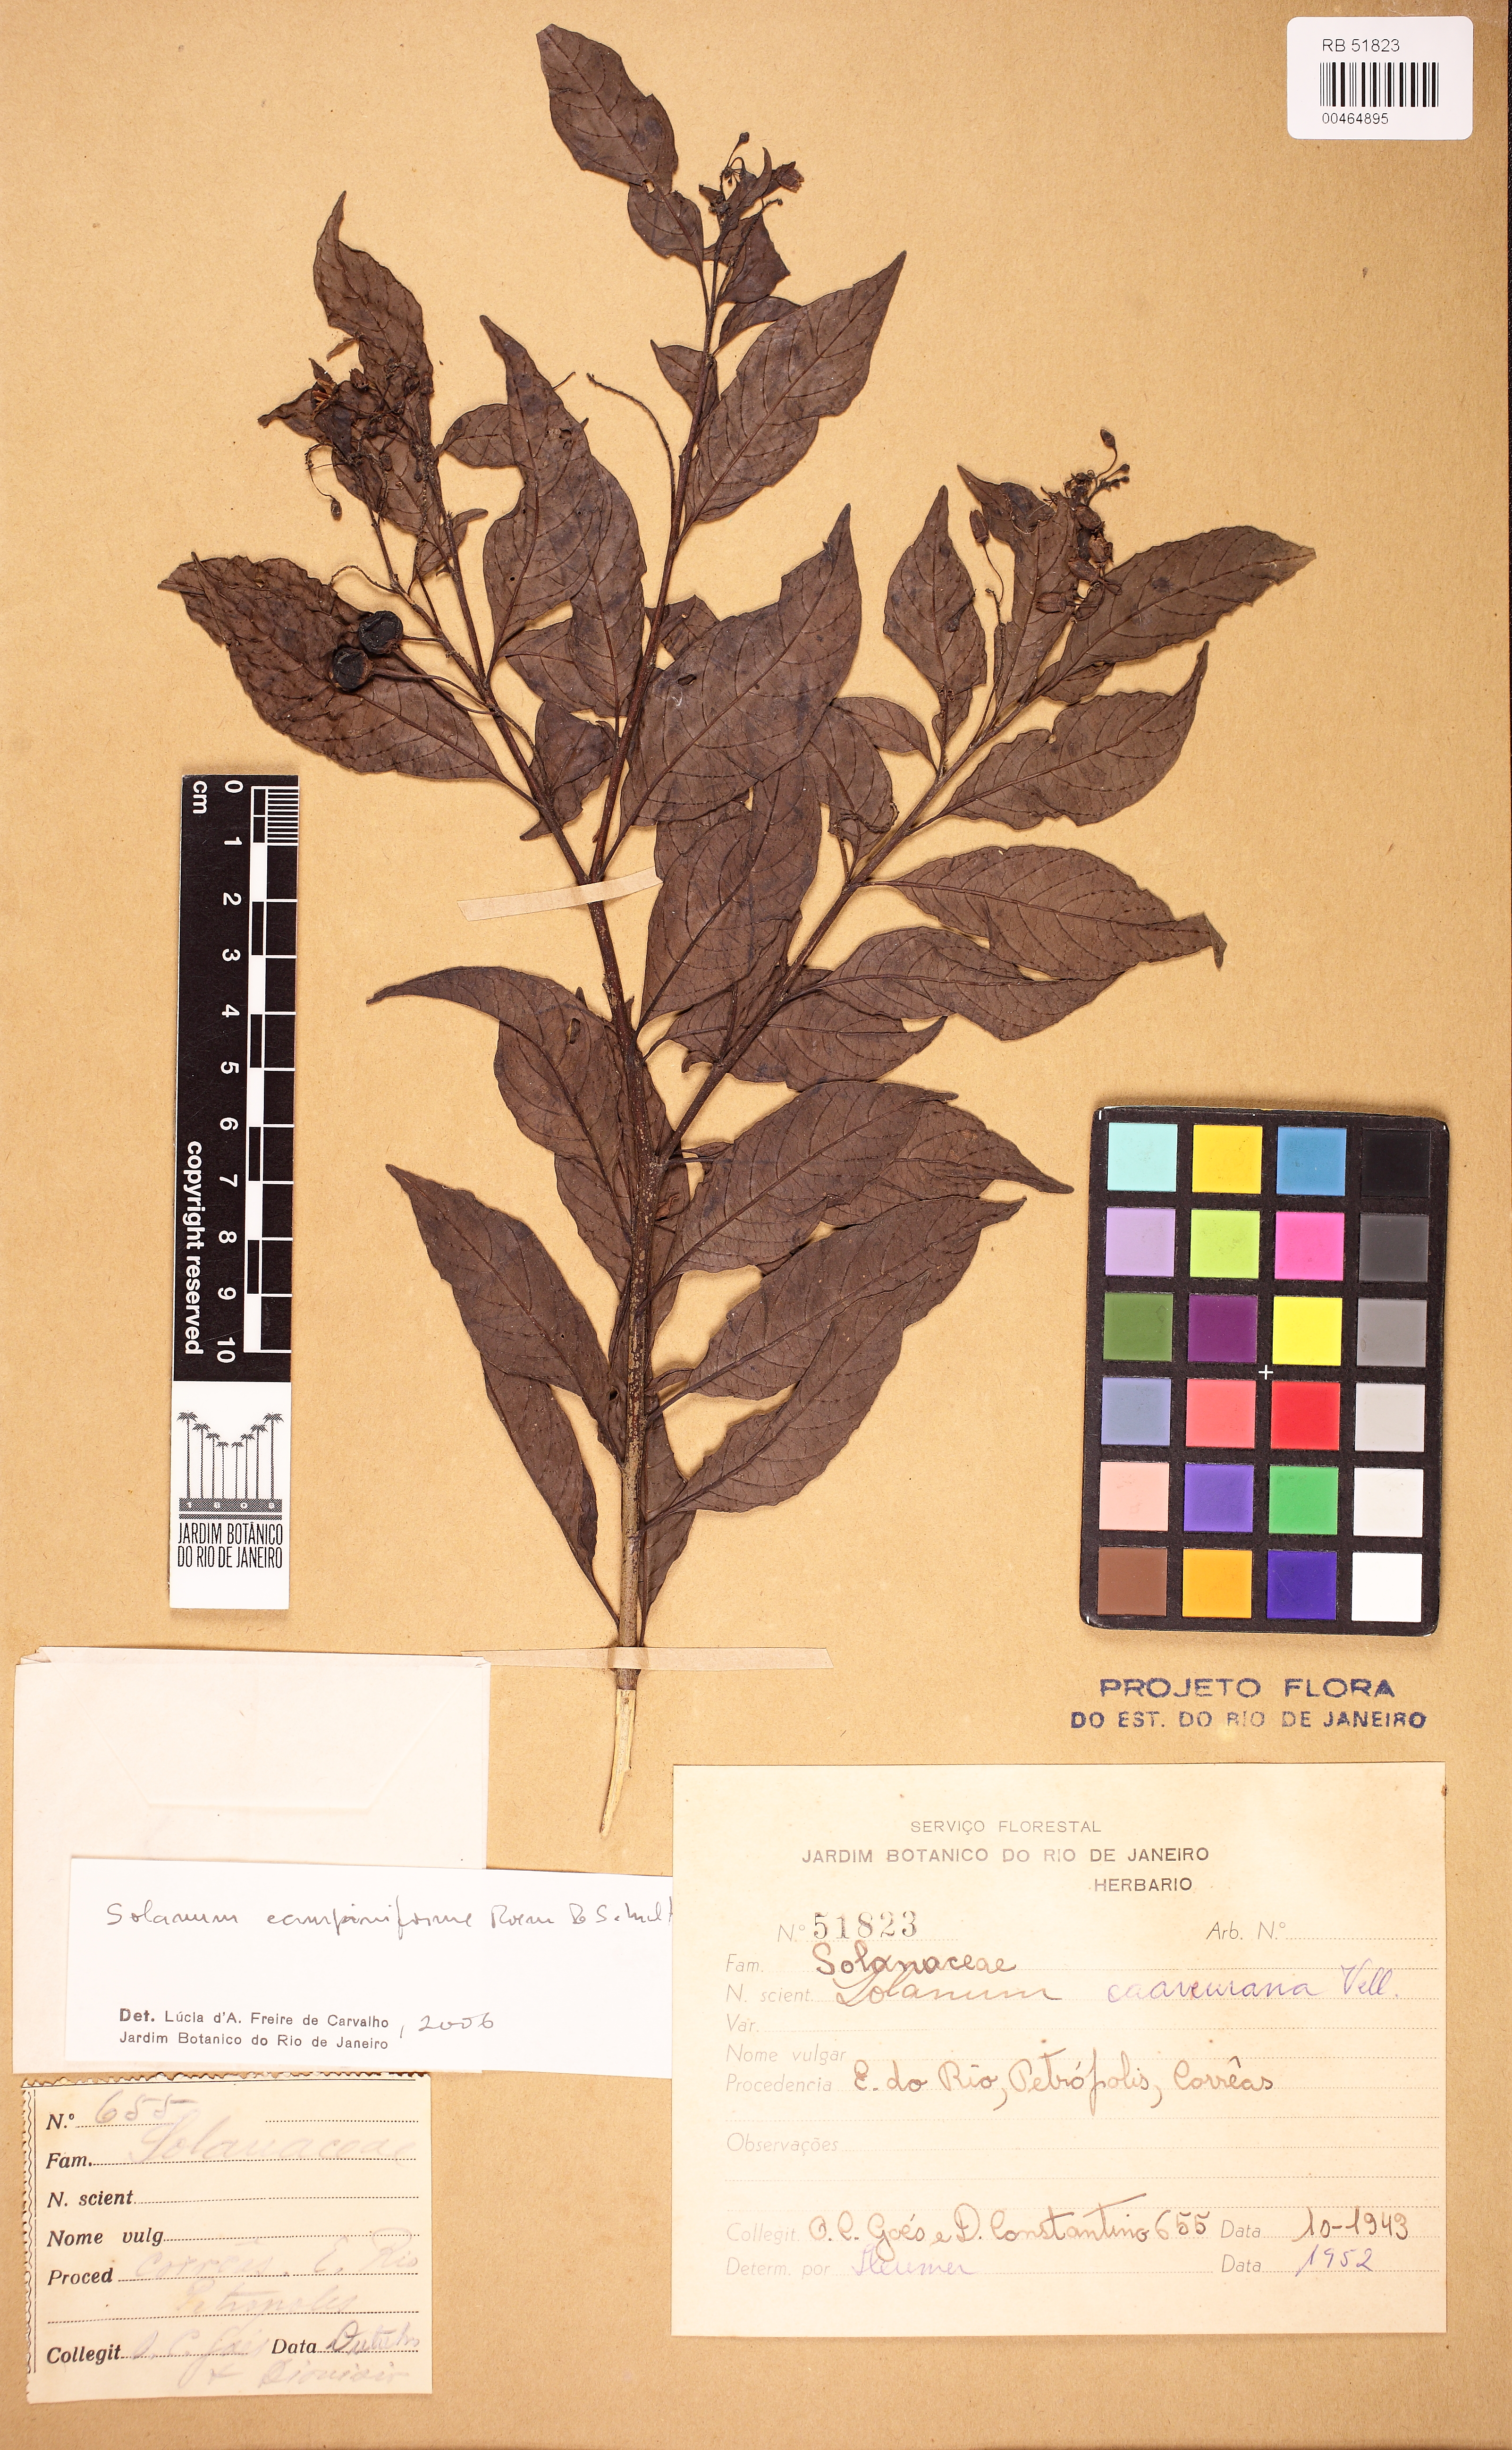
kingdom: Plantae
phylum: Tracheophyta
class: Magnoliopsida
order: Solanales
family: Solanaceae
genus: Solanum
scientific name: Solanum campaniforme
